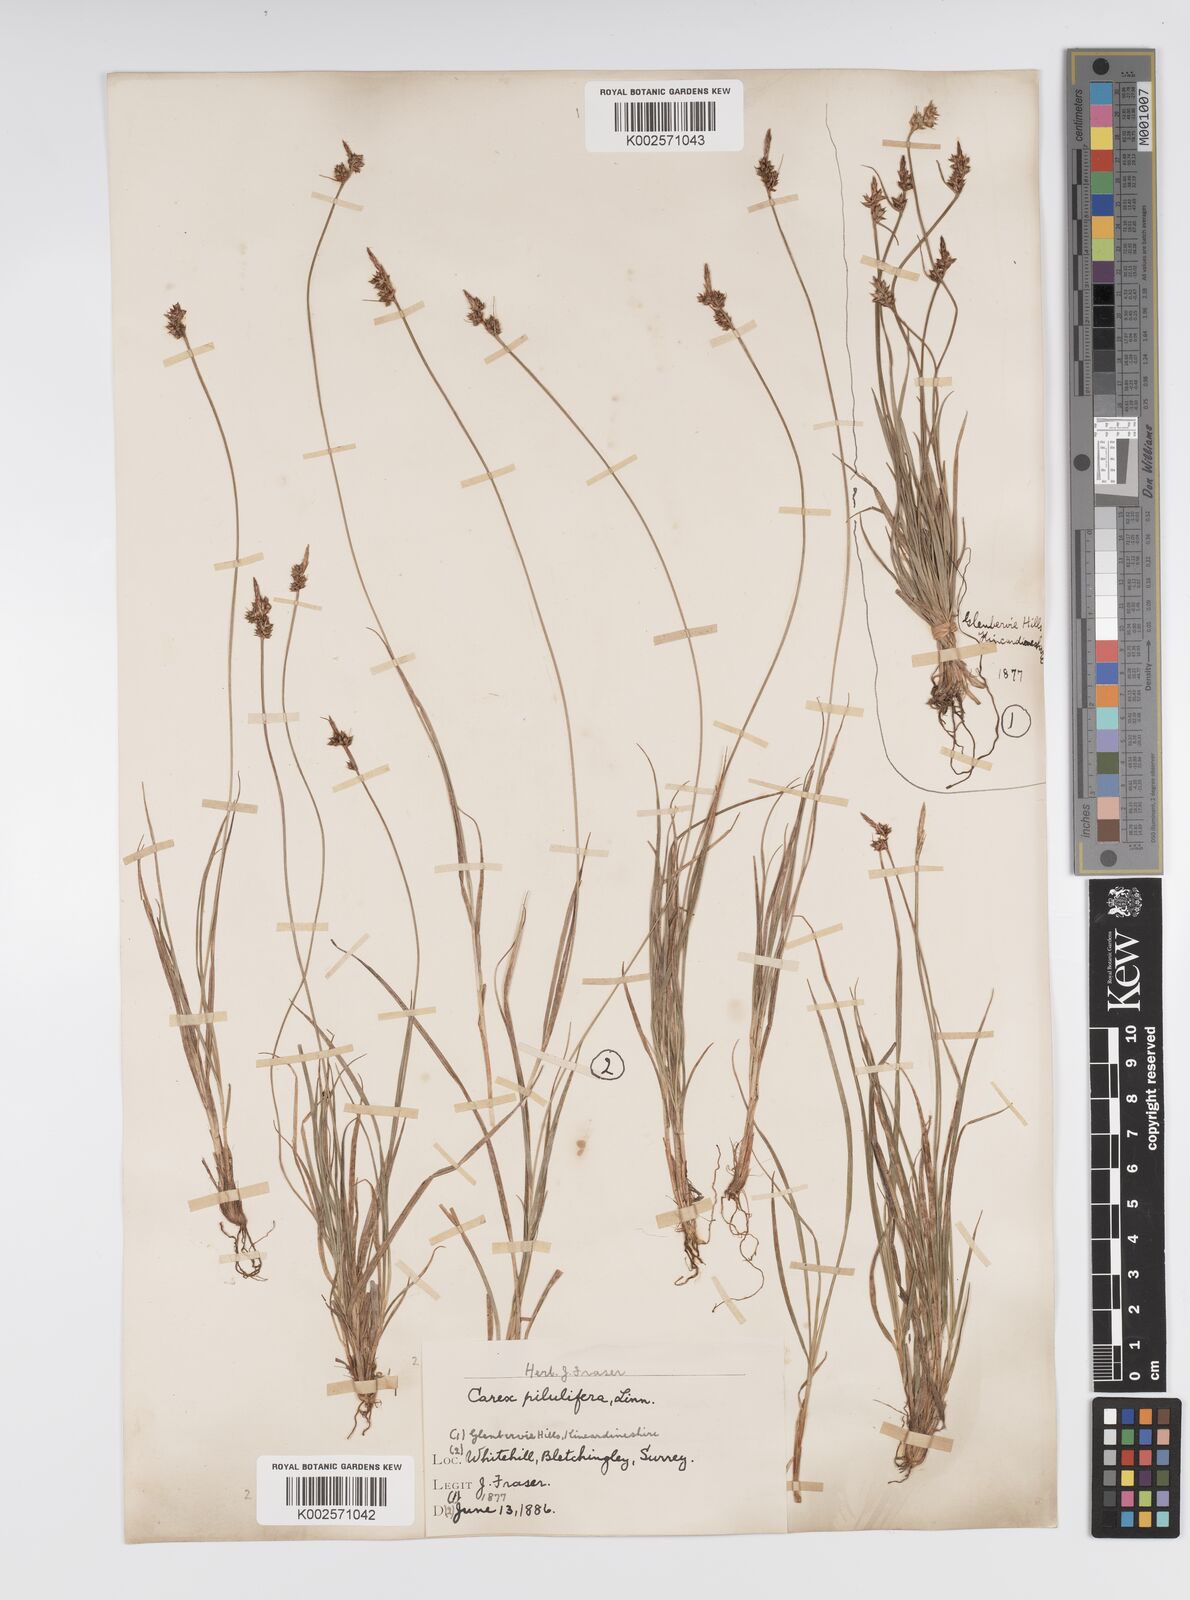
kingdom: Plantae
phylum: Tracheophyta
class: Liliopsida
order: Poales
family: Cyperaceae
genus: Carex
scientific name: Carex pilulifera
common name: Pill sedge
